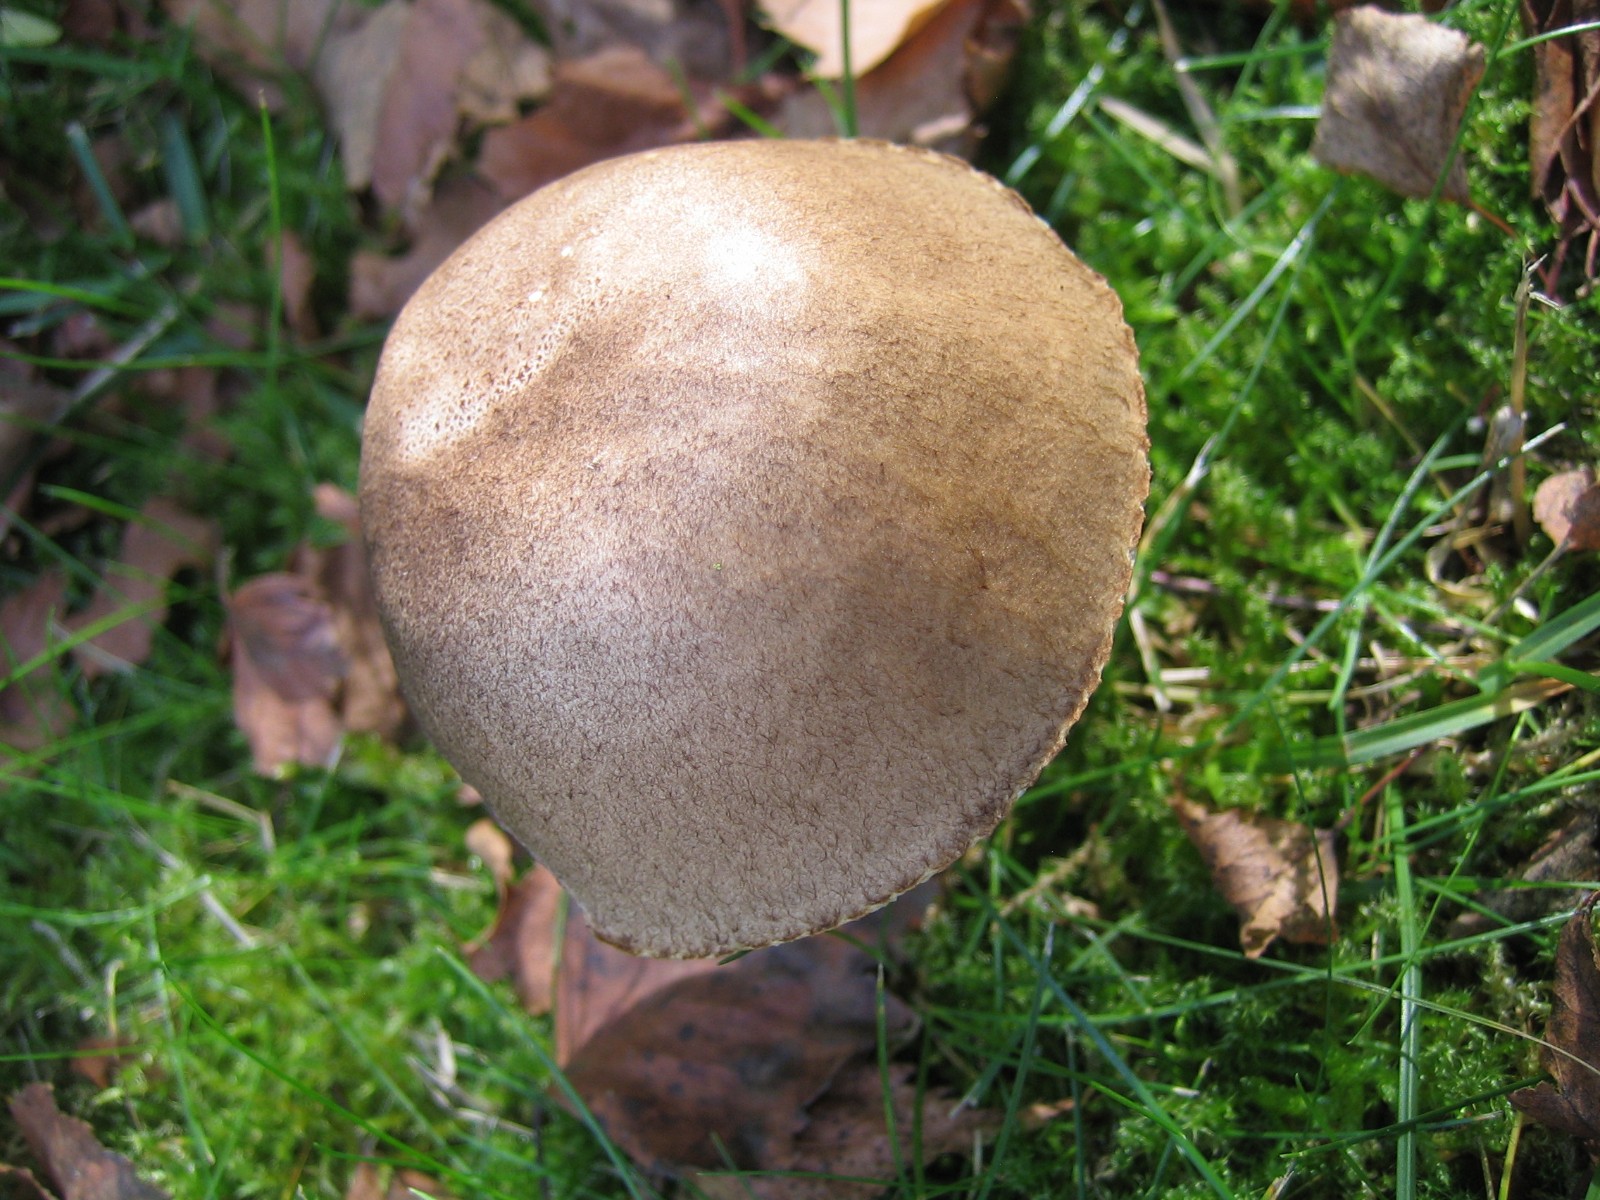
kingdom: Fungi
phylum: Basidiomycota
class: Agaricomycetes
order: Boletales
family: Boletaceae
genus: Leccinum
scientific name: Leccinum
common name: skælrørhat
